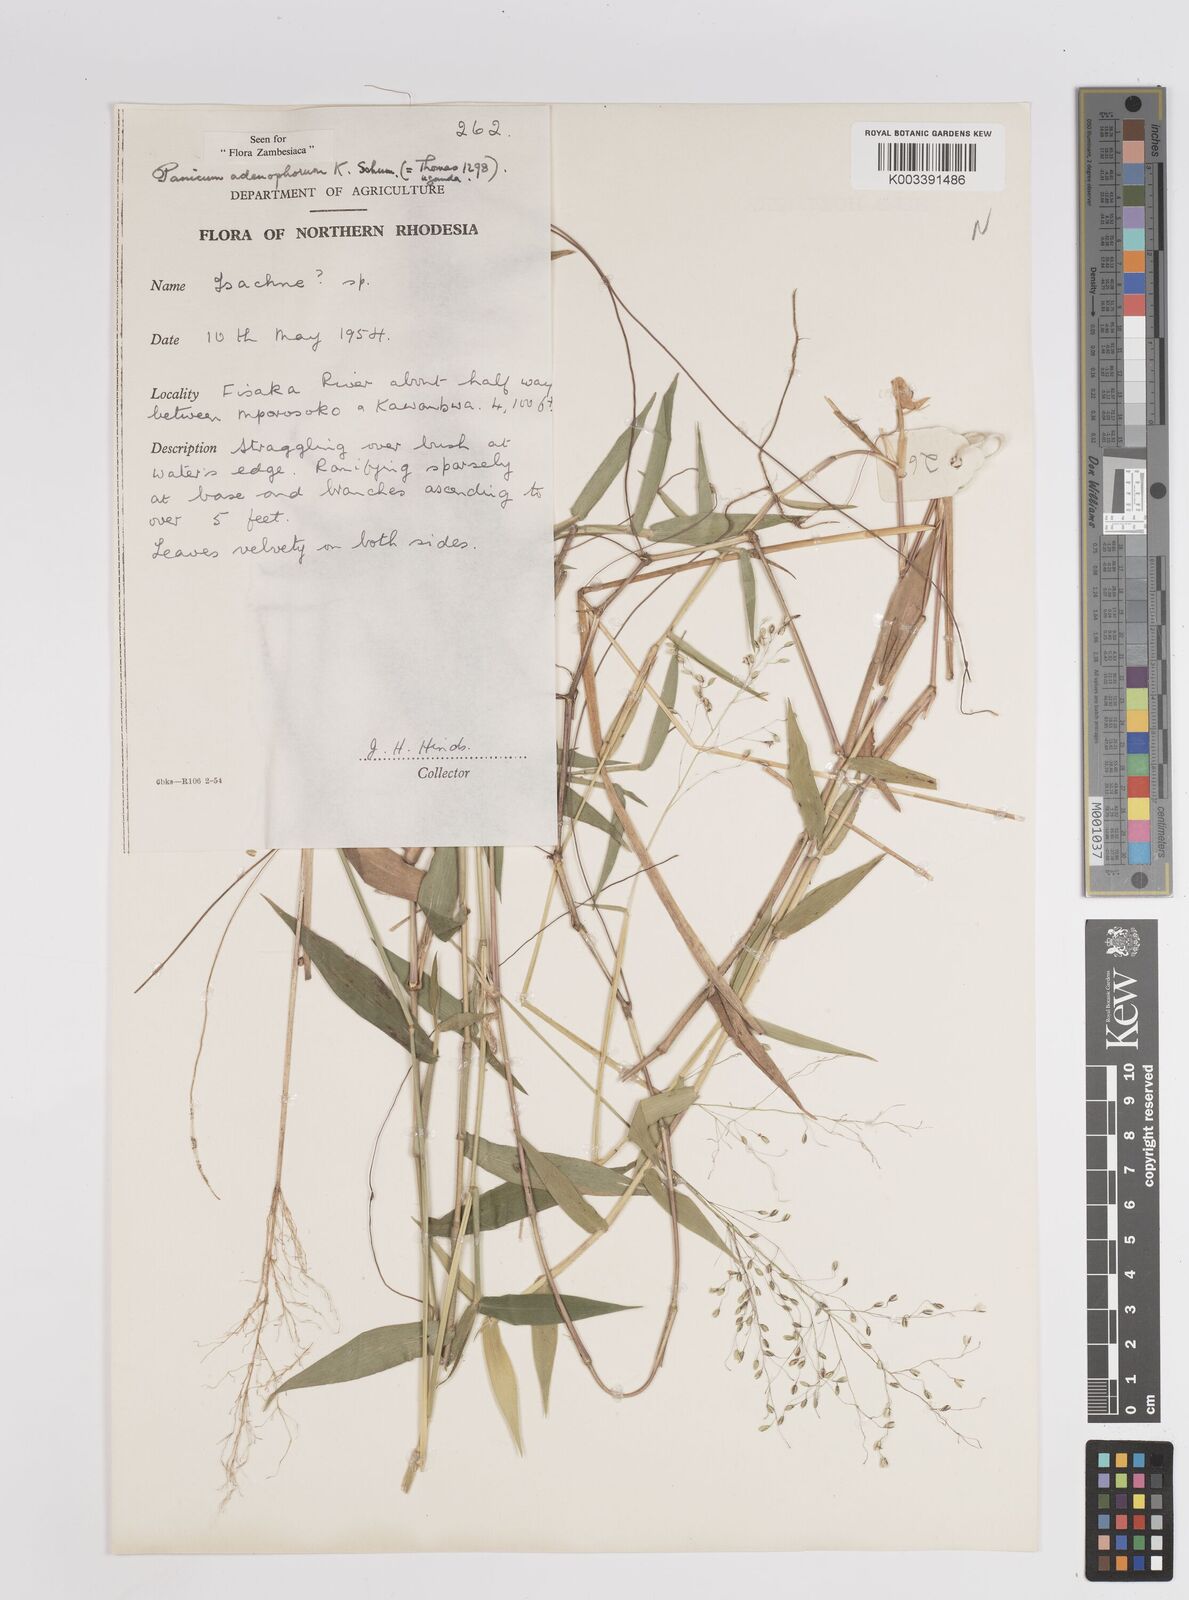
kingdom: Plantae
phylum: Tracheophyta
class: Liliopsida
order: Poales
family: Poaceae
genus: Adenochloa
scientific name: Adenochloa adenophora
